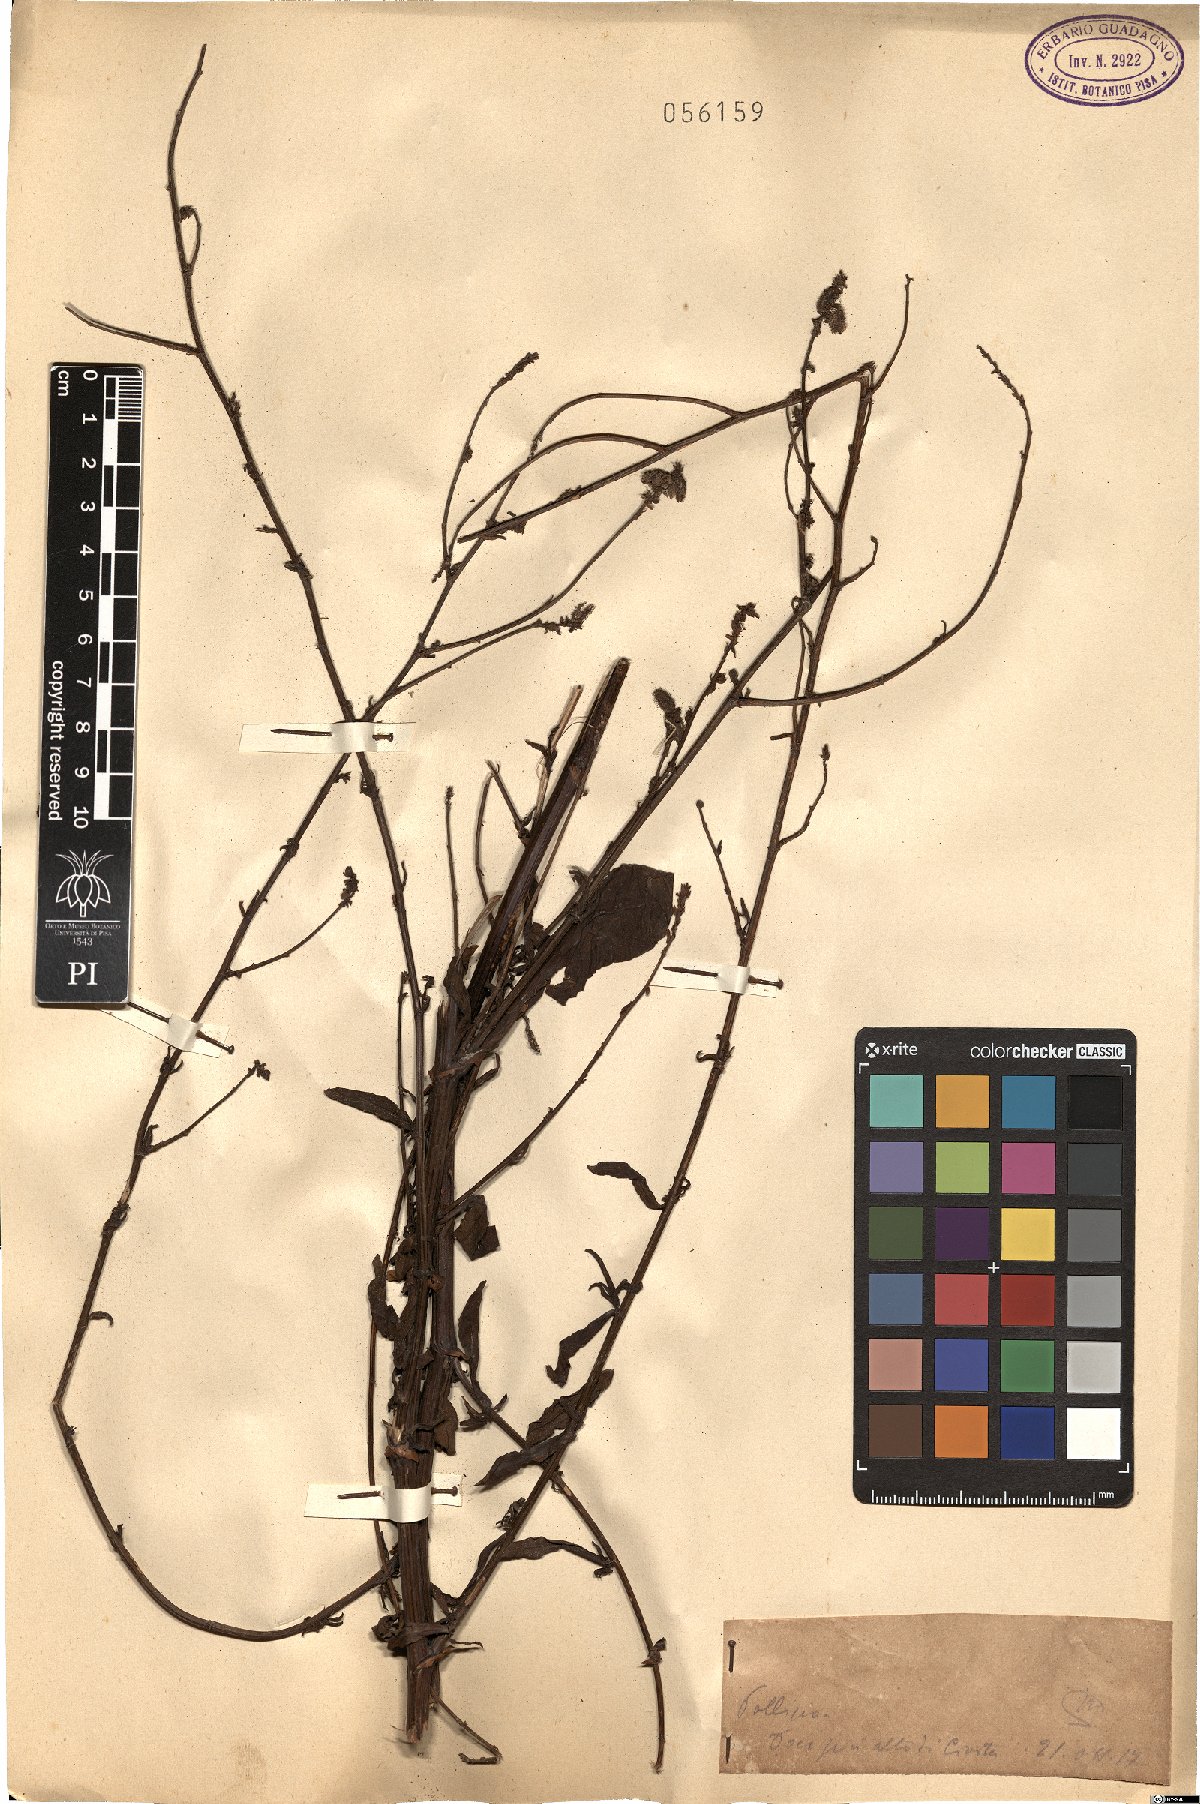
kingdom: Plantae
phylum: Tracheophyta
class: Magnoliopsida
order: Caryophyllales
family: Plumbaginaceae
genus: Plumbago
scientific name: Plumbago
